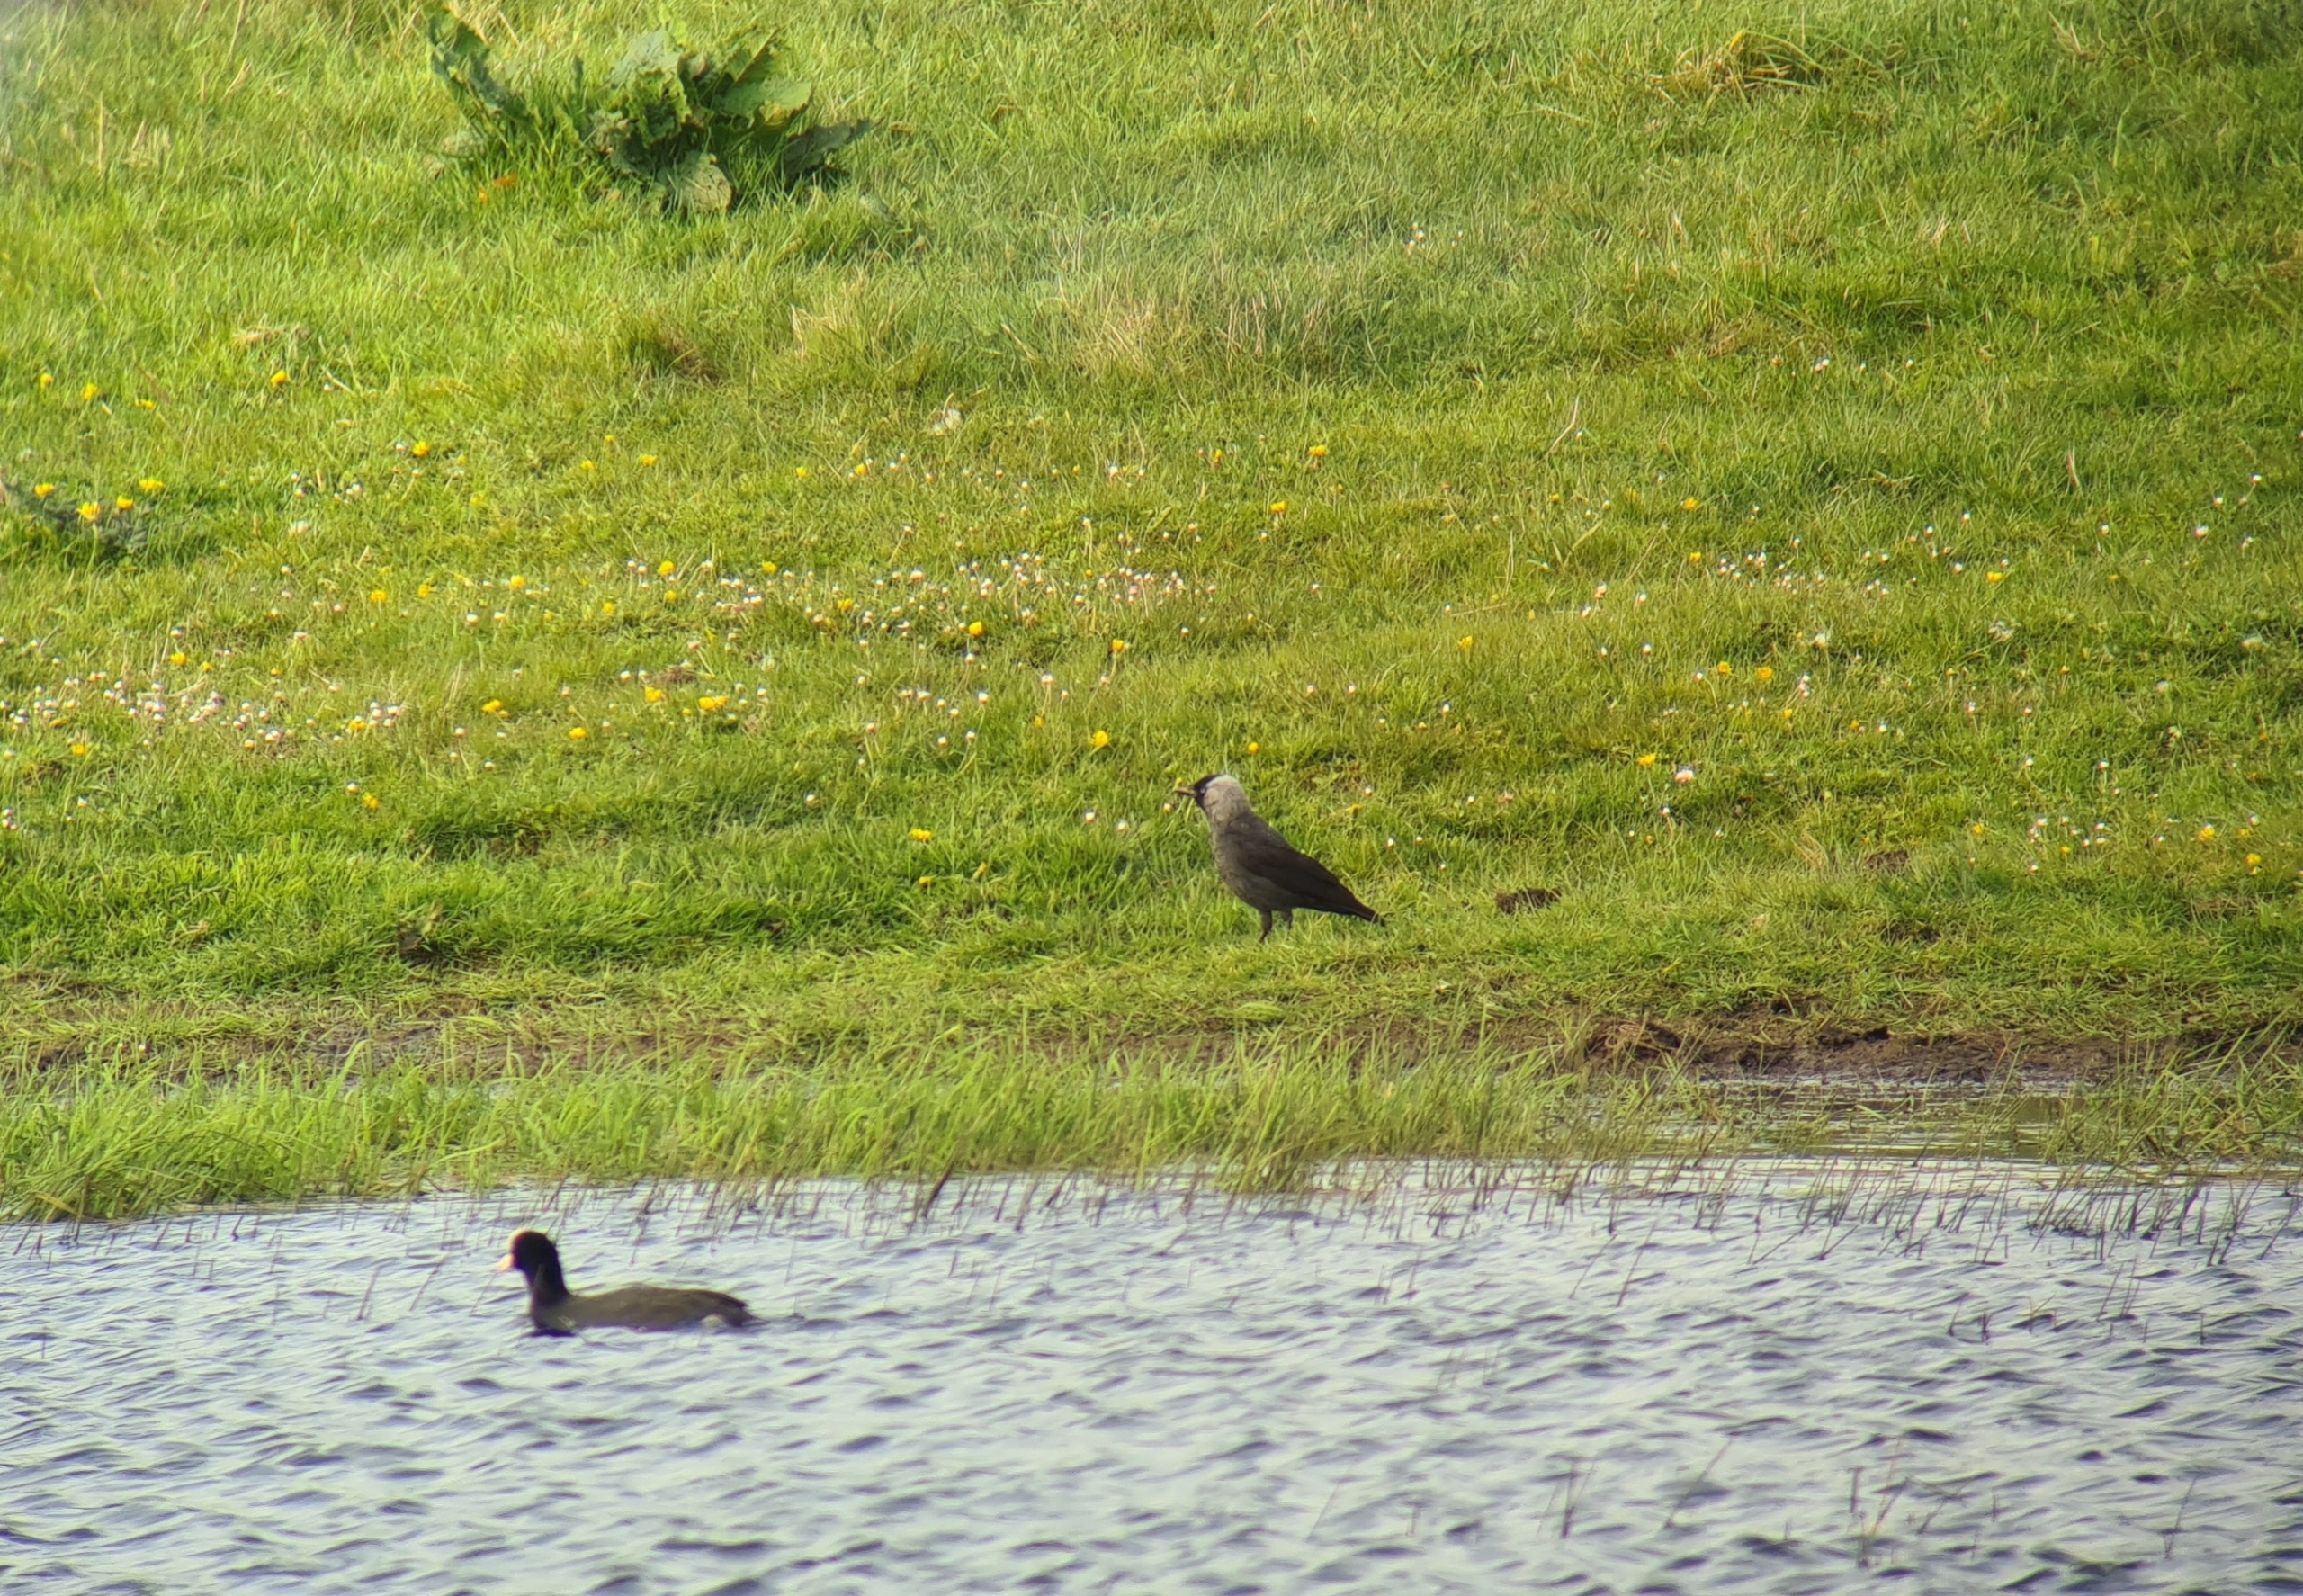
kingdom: Animalia
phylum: Chordata
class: Aves
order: Passeriformes
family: Corvidae
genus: Coloeus
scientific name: Coloeus monedula
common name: Allike
